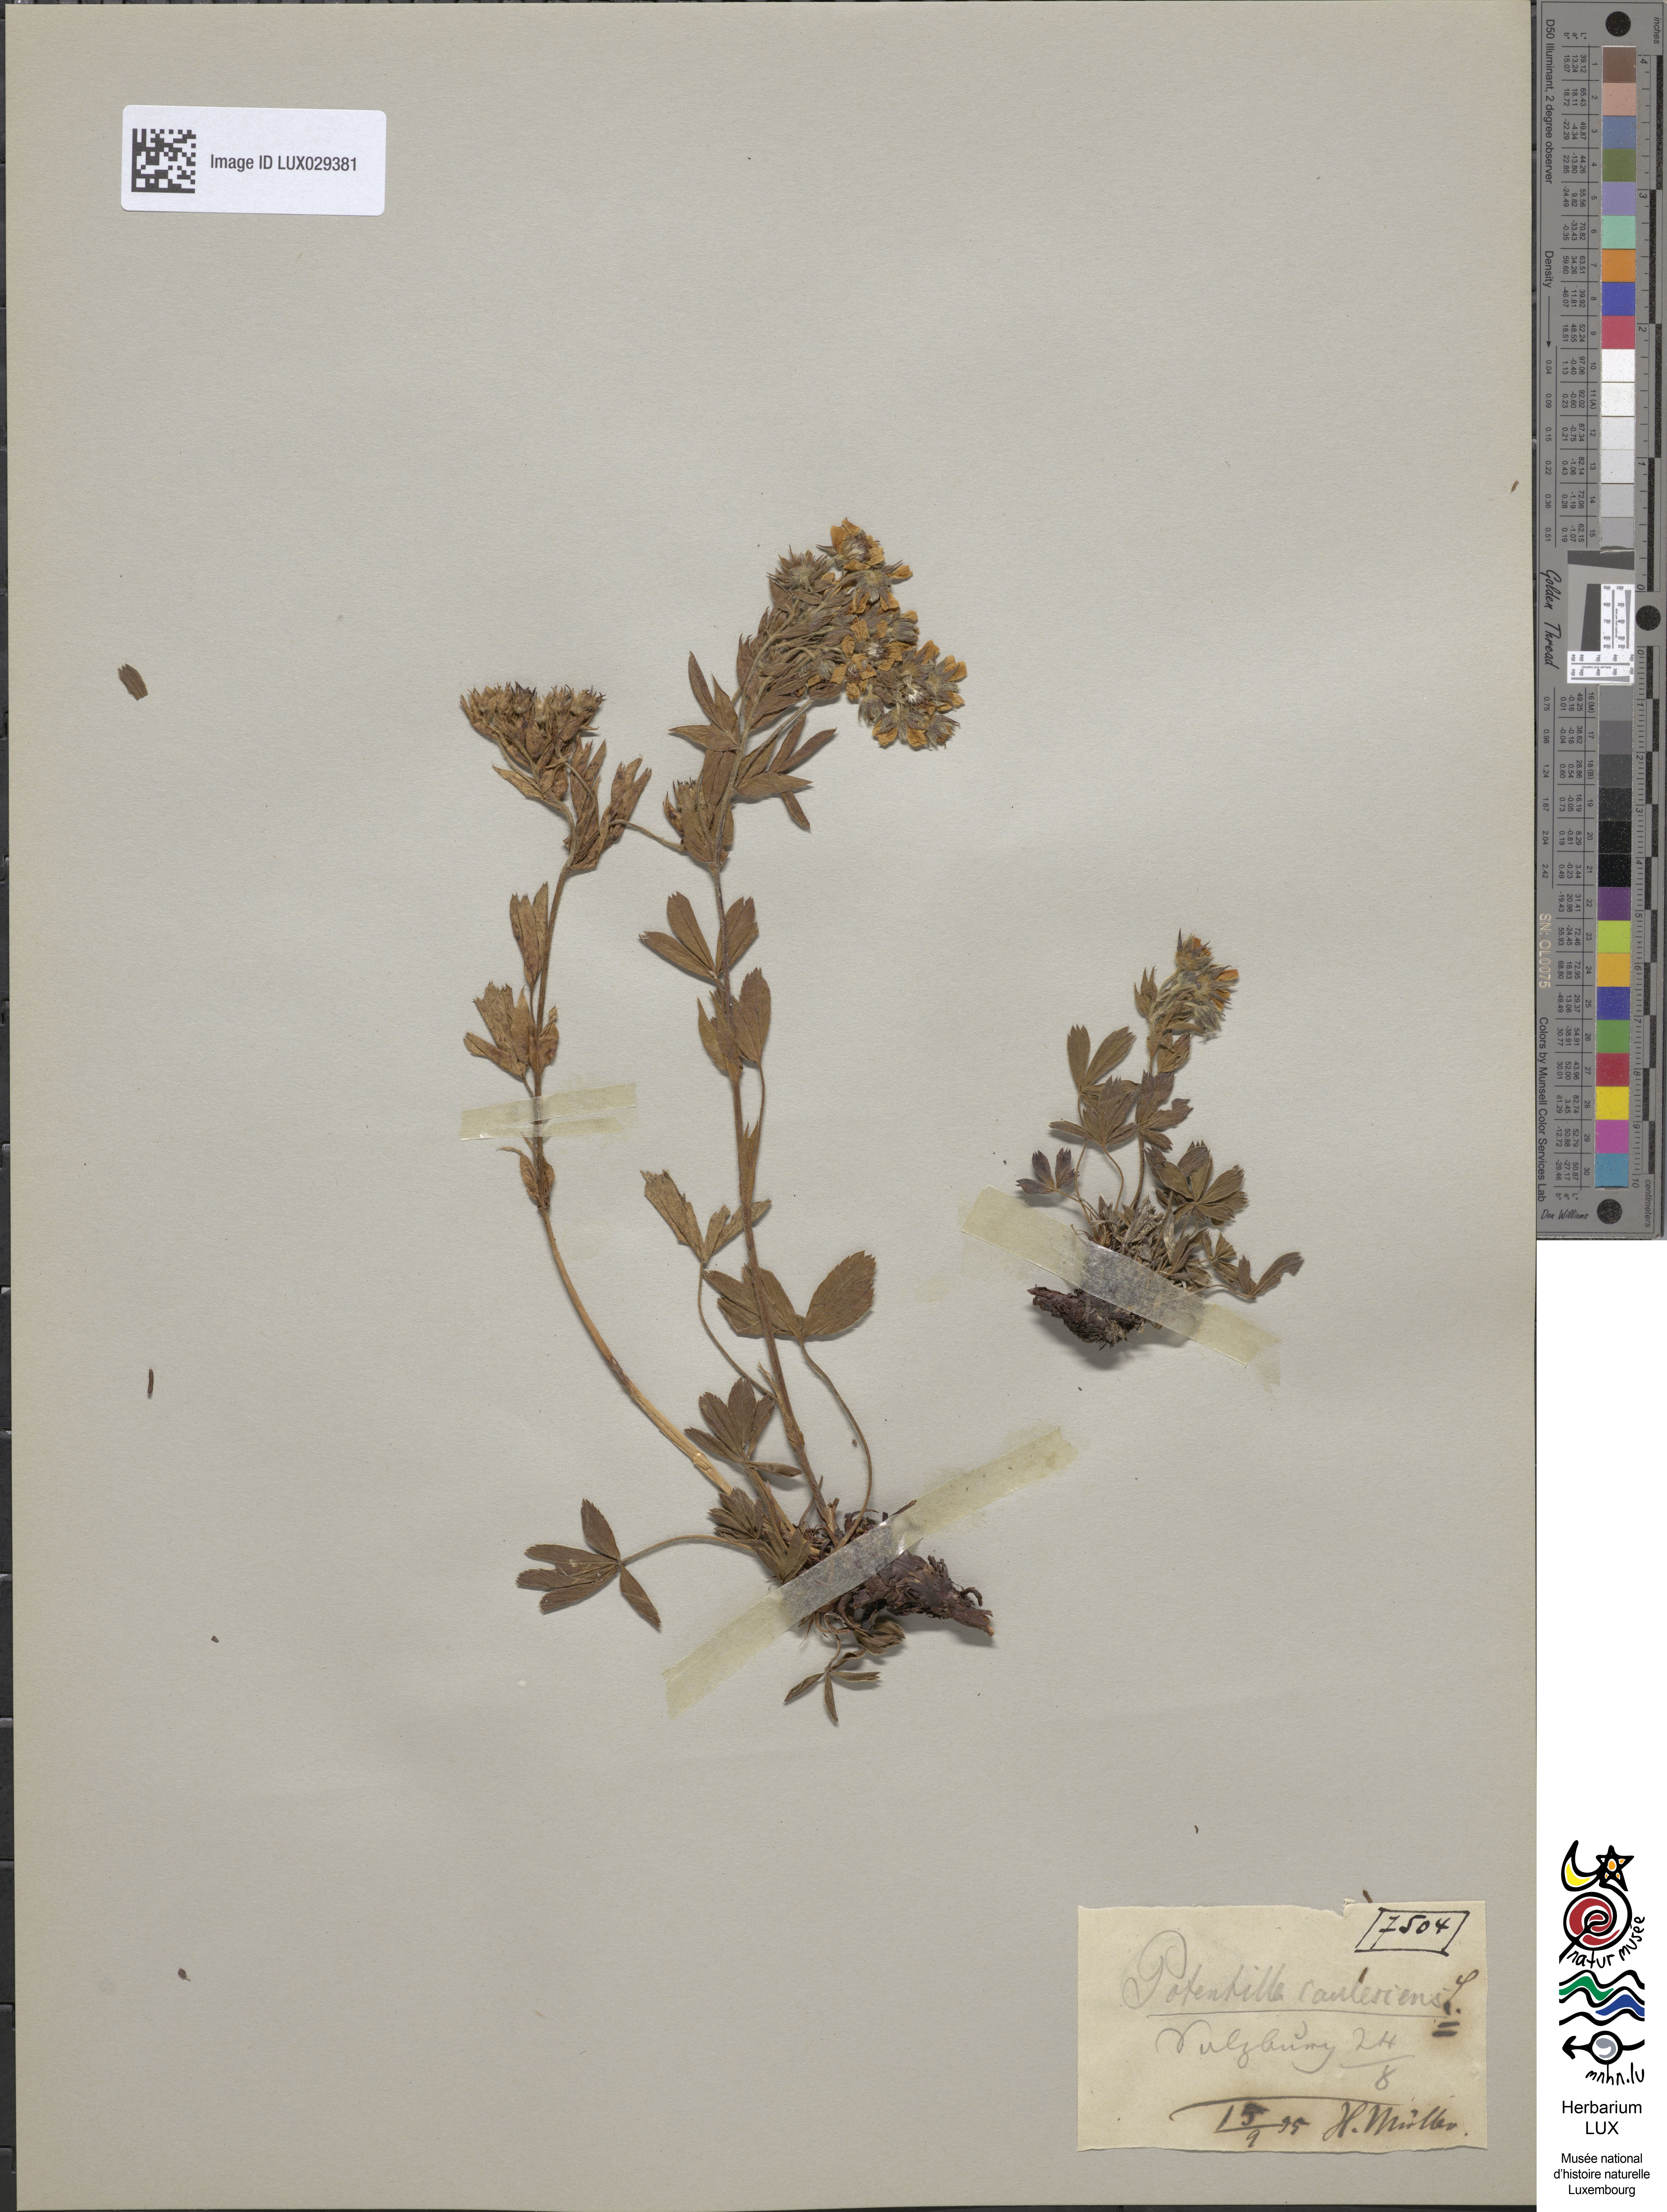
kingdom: Plantae
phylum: Tracheophyta
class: Magnoliopsida
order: Rosales
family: Rosaceae
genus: Potentilla
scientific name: Potentilla caulescens
